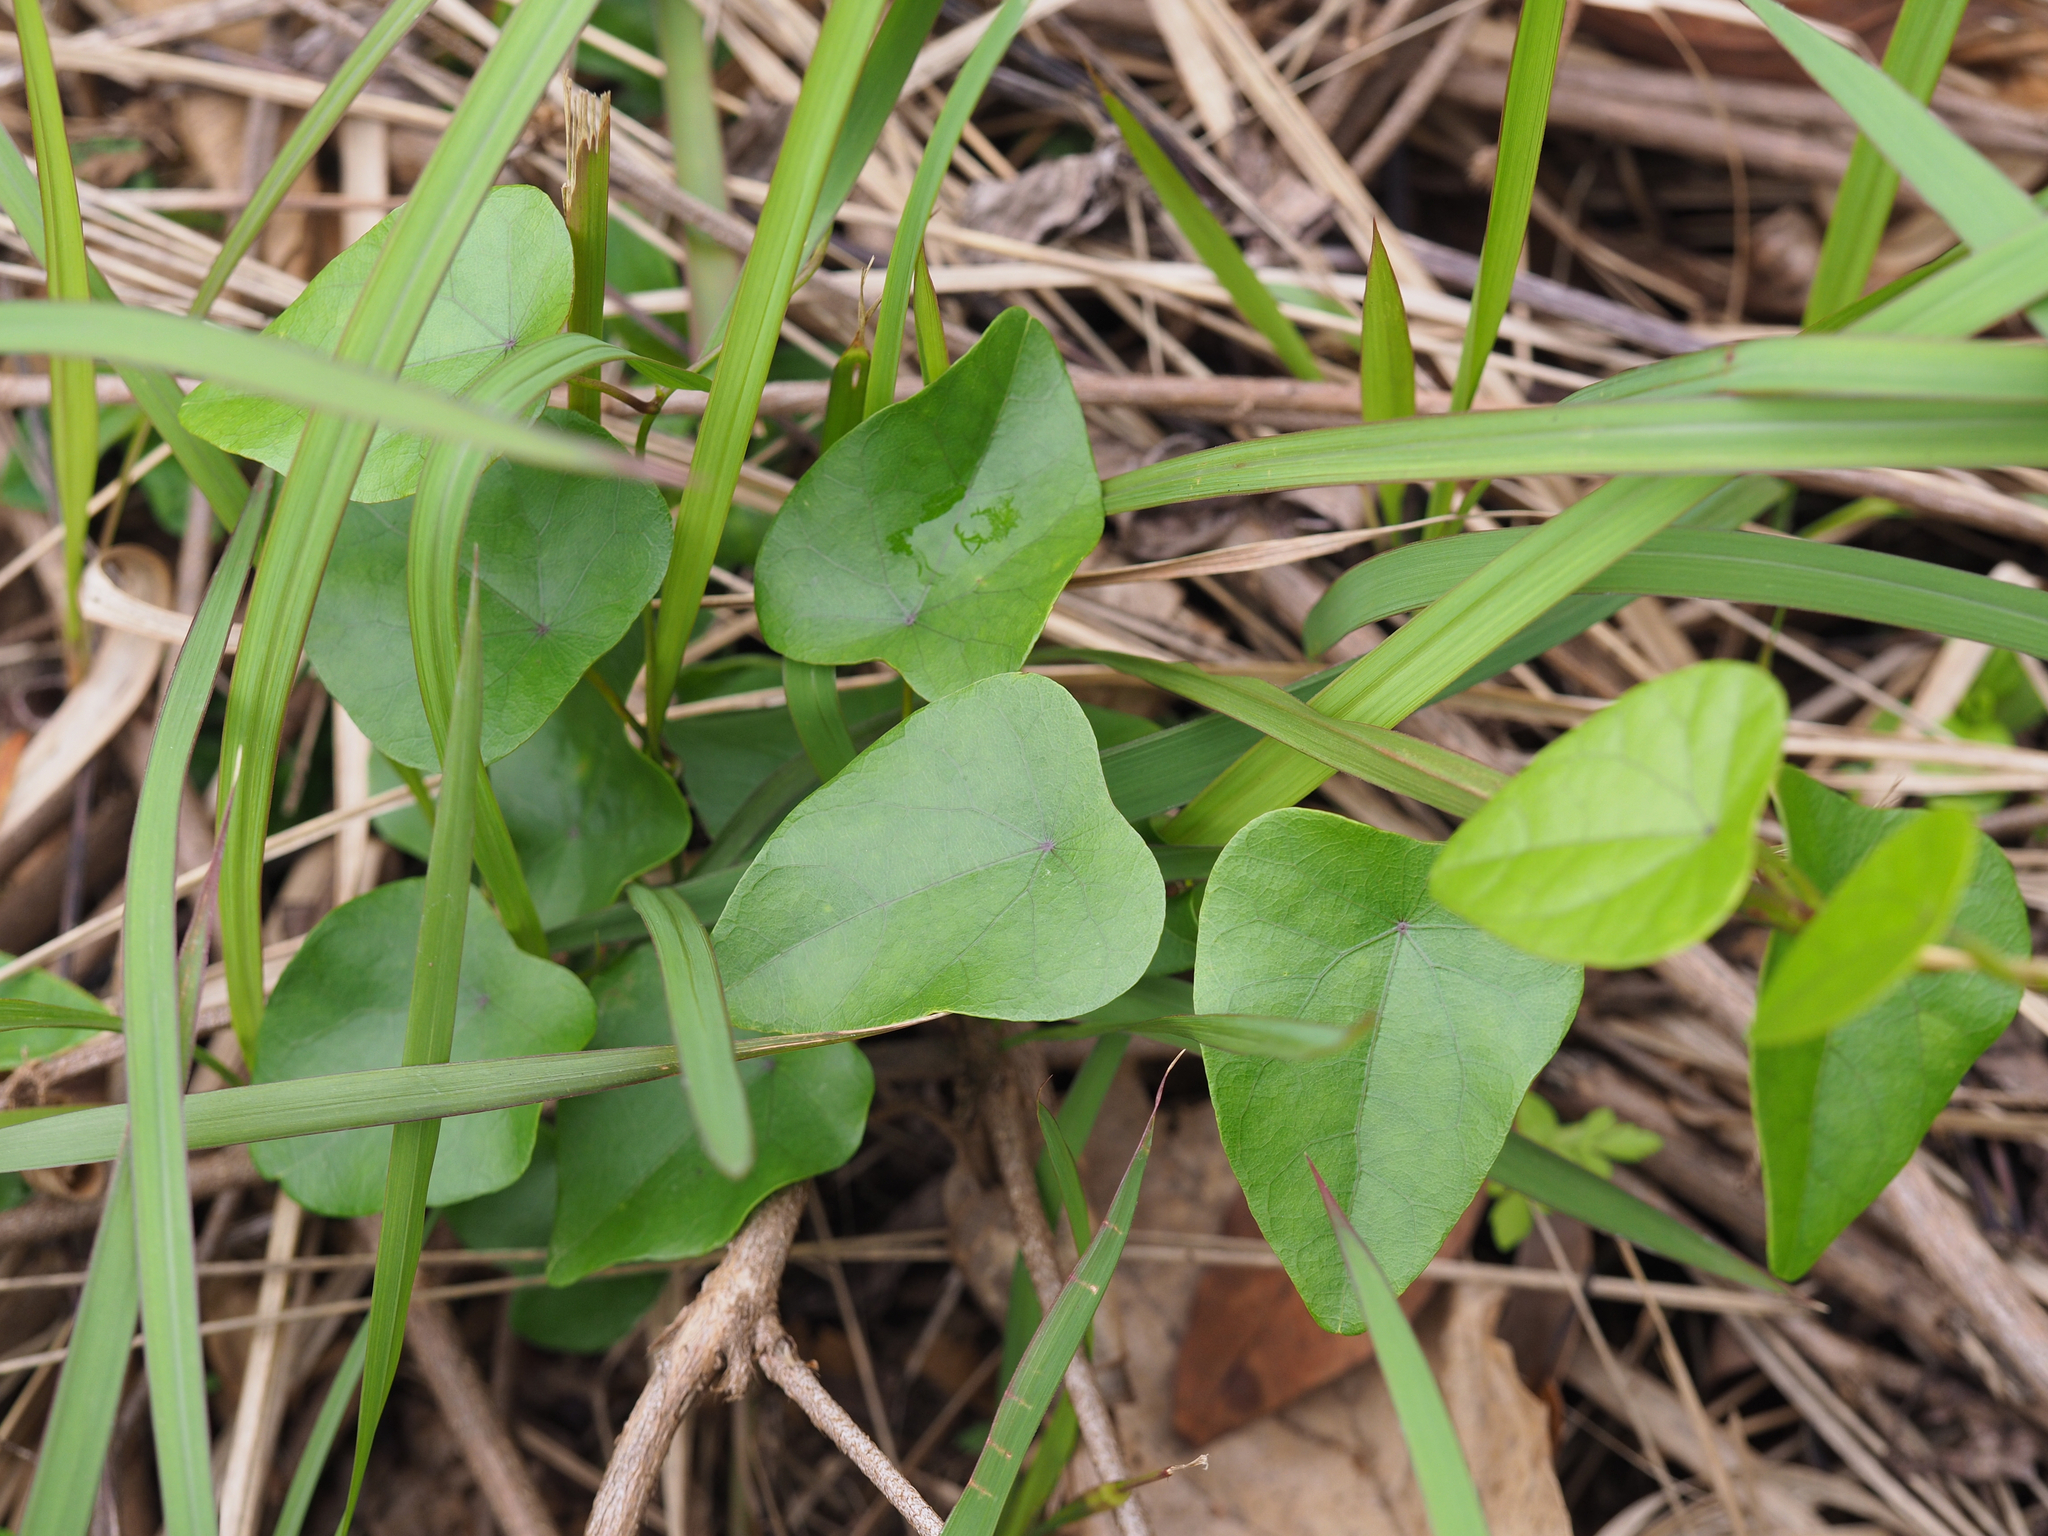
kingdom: Plantae
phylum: Tracheophyta
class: Magnoliopsida
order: Ranunculales
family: Menispermaceae
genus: Stephania
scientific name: Stephania japonica
